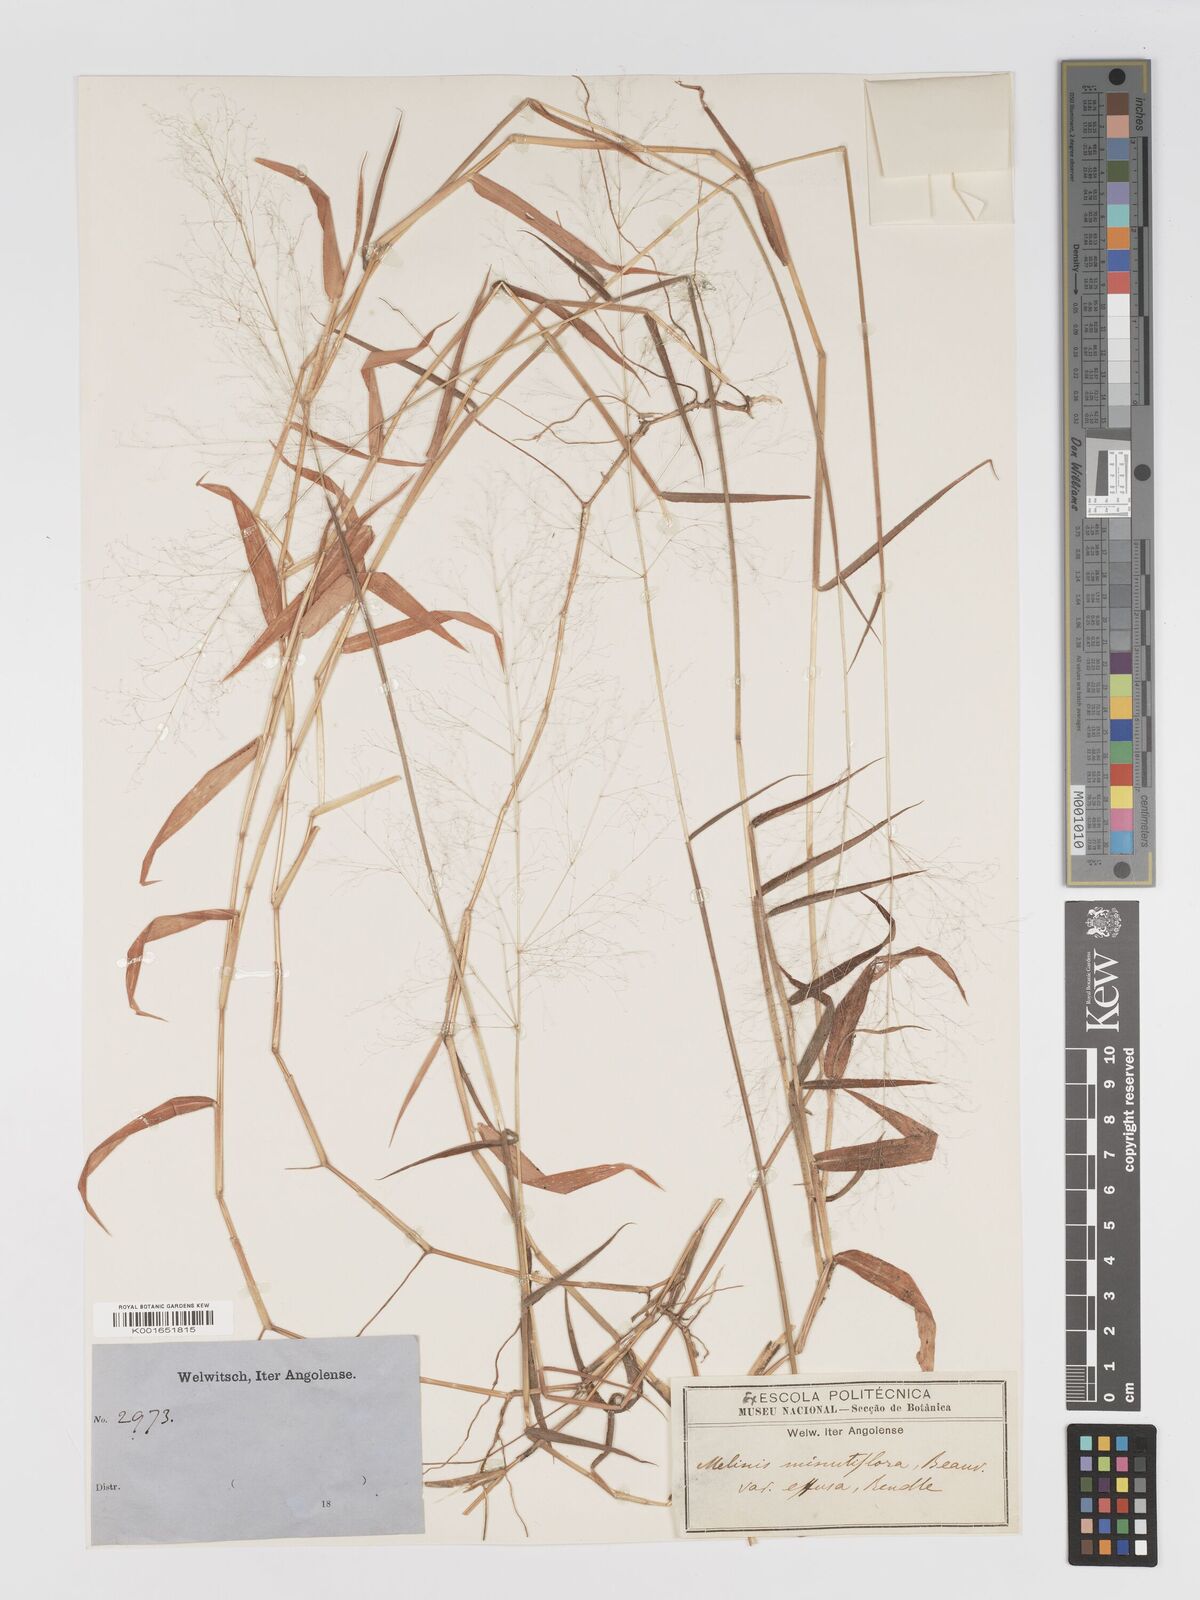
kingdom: Plantae
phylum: Tracheophyta
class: Liliopsida
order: Poales
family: Poaceae
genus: Melinis
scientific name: Melinis tenuissima
